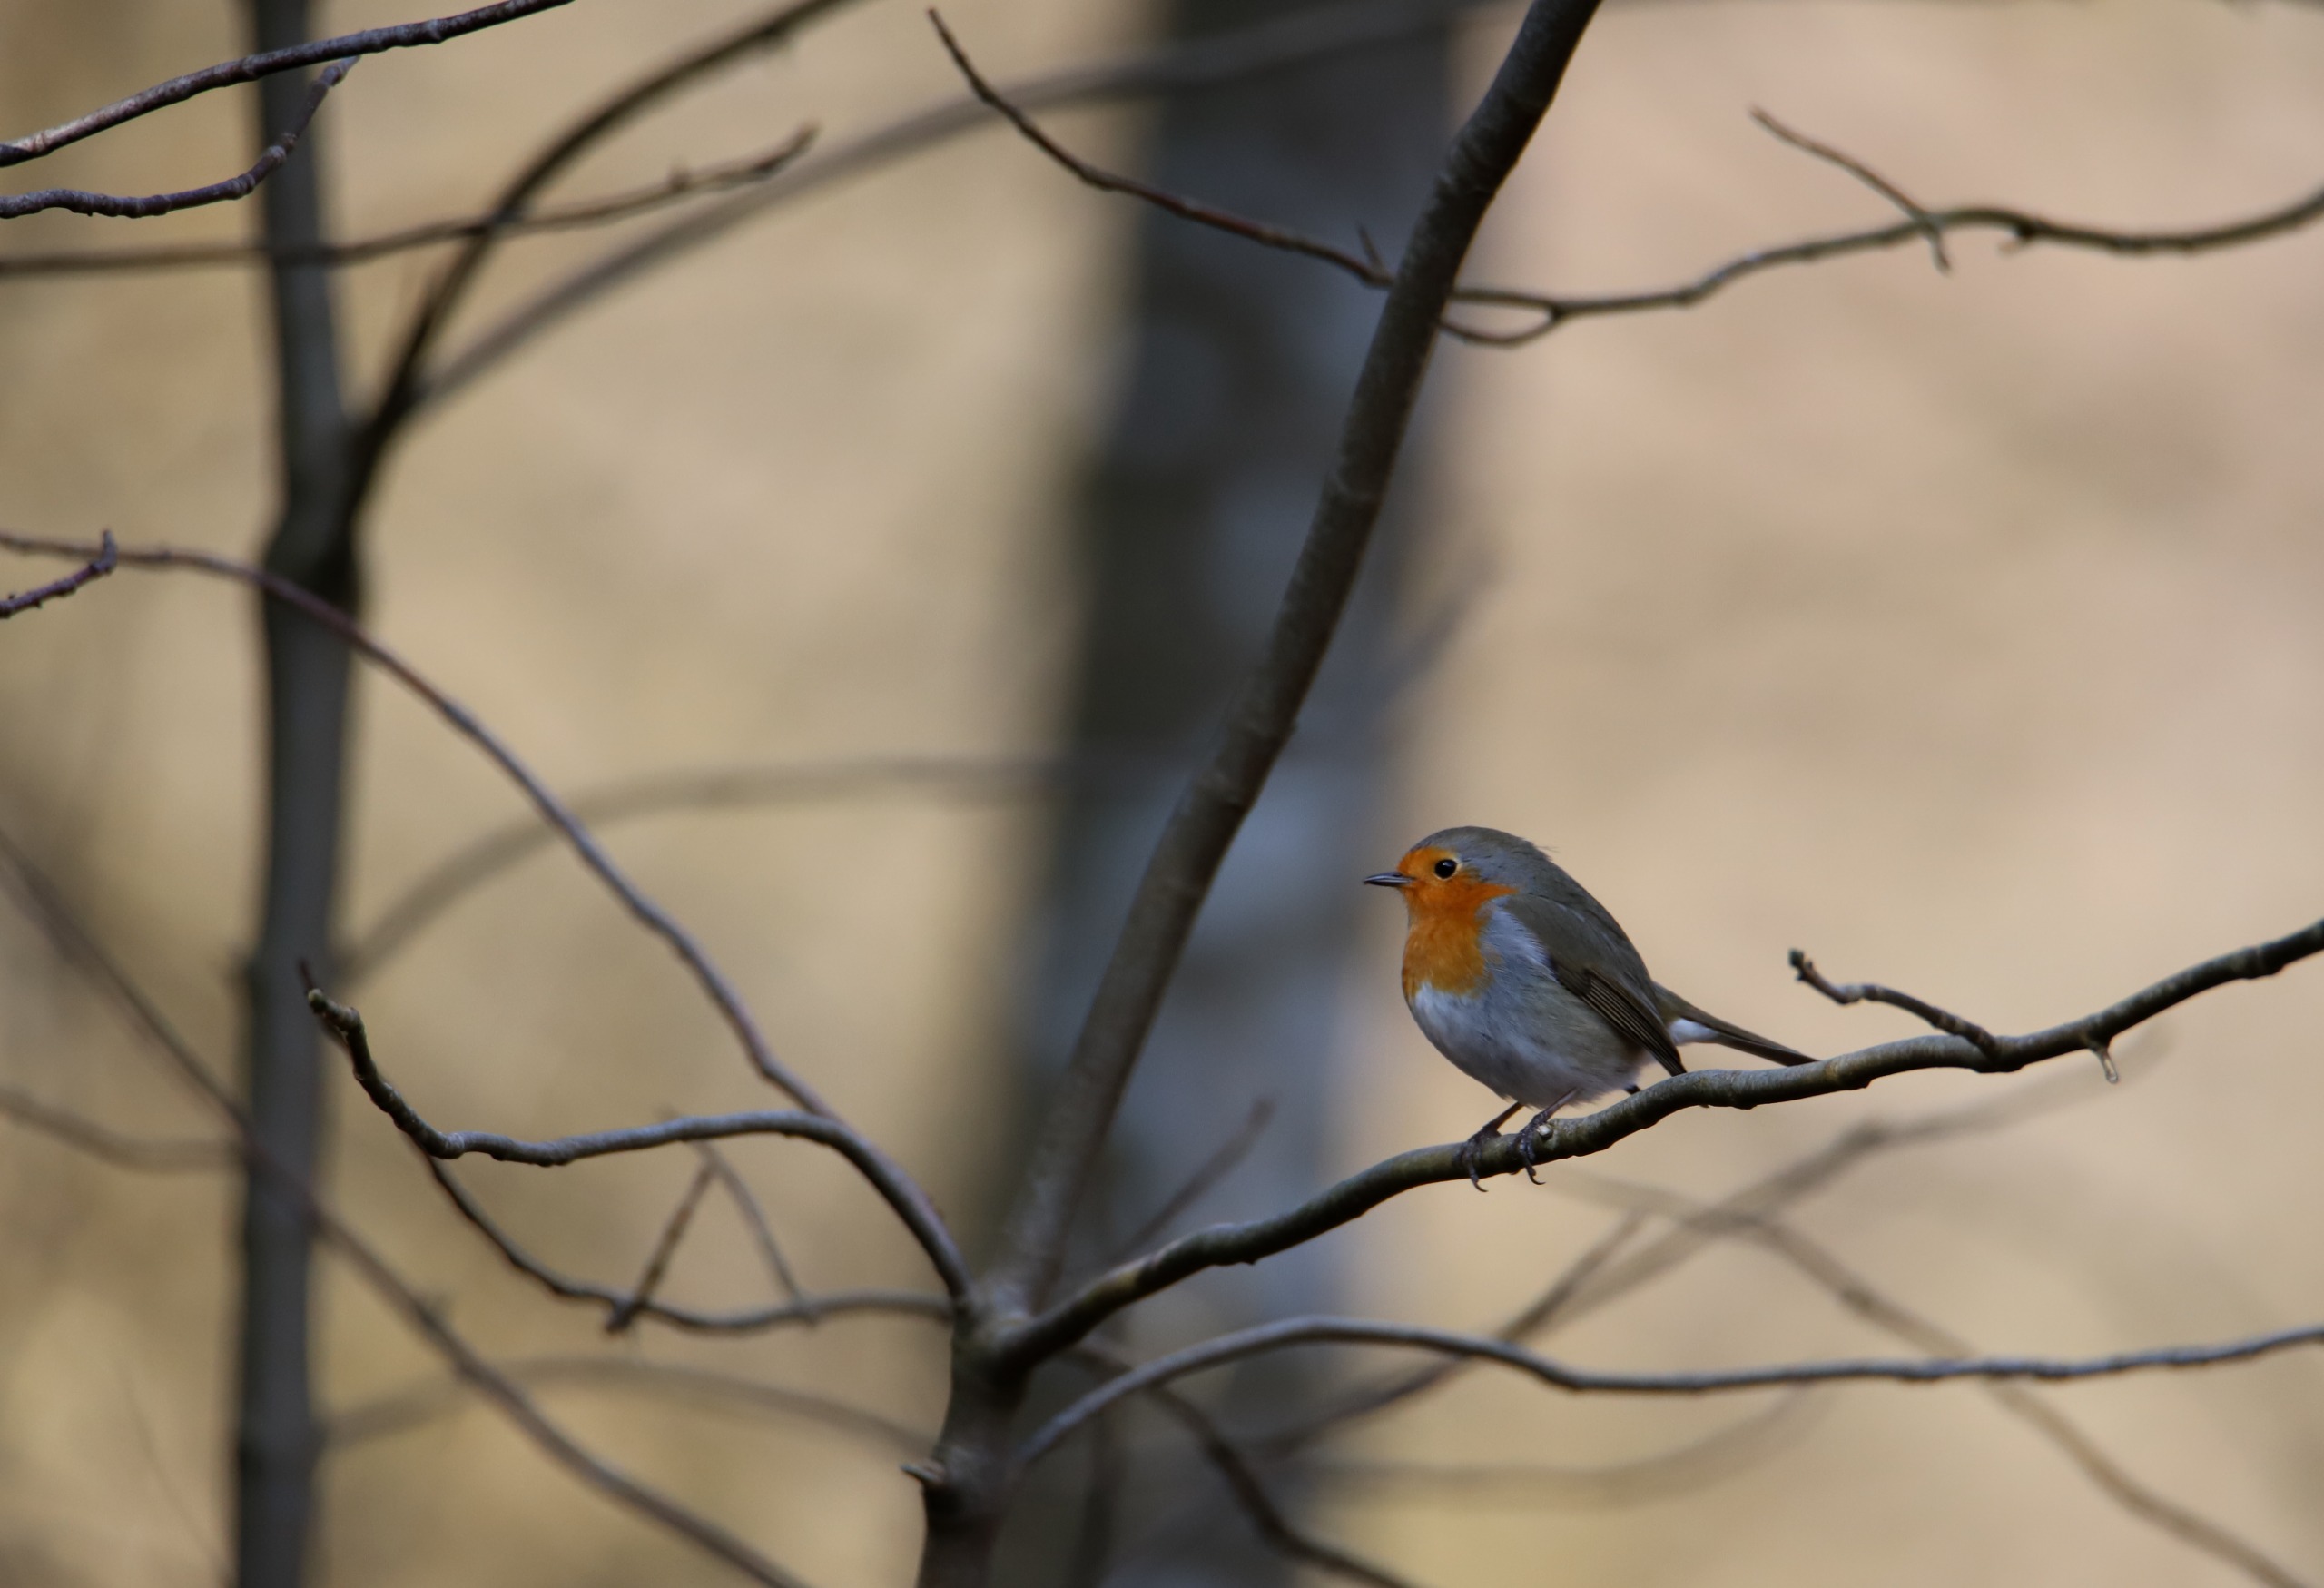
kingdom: Animalia
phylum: Chordata
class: Aves
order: Passeriformes
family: Muscicapidae
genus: Erithacus
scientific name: Erithacus rubecula
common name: Rødhals/rødkælk
